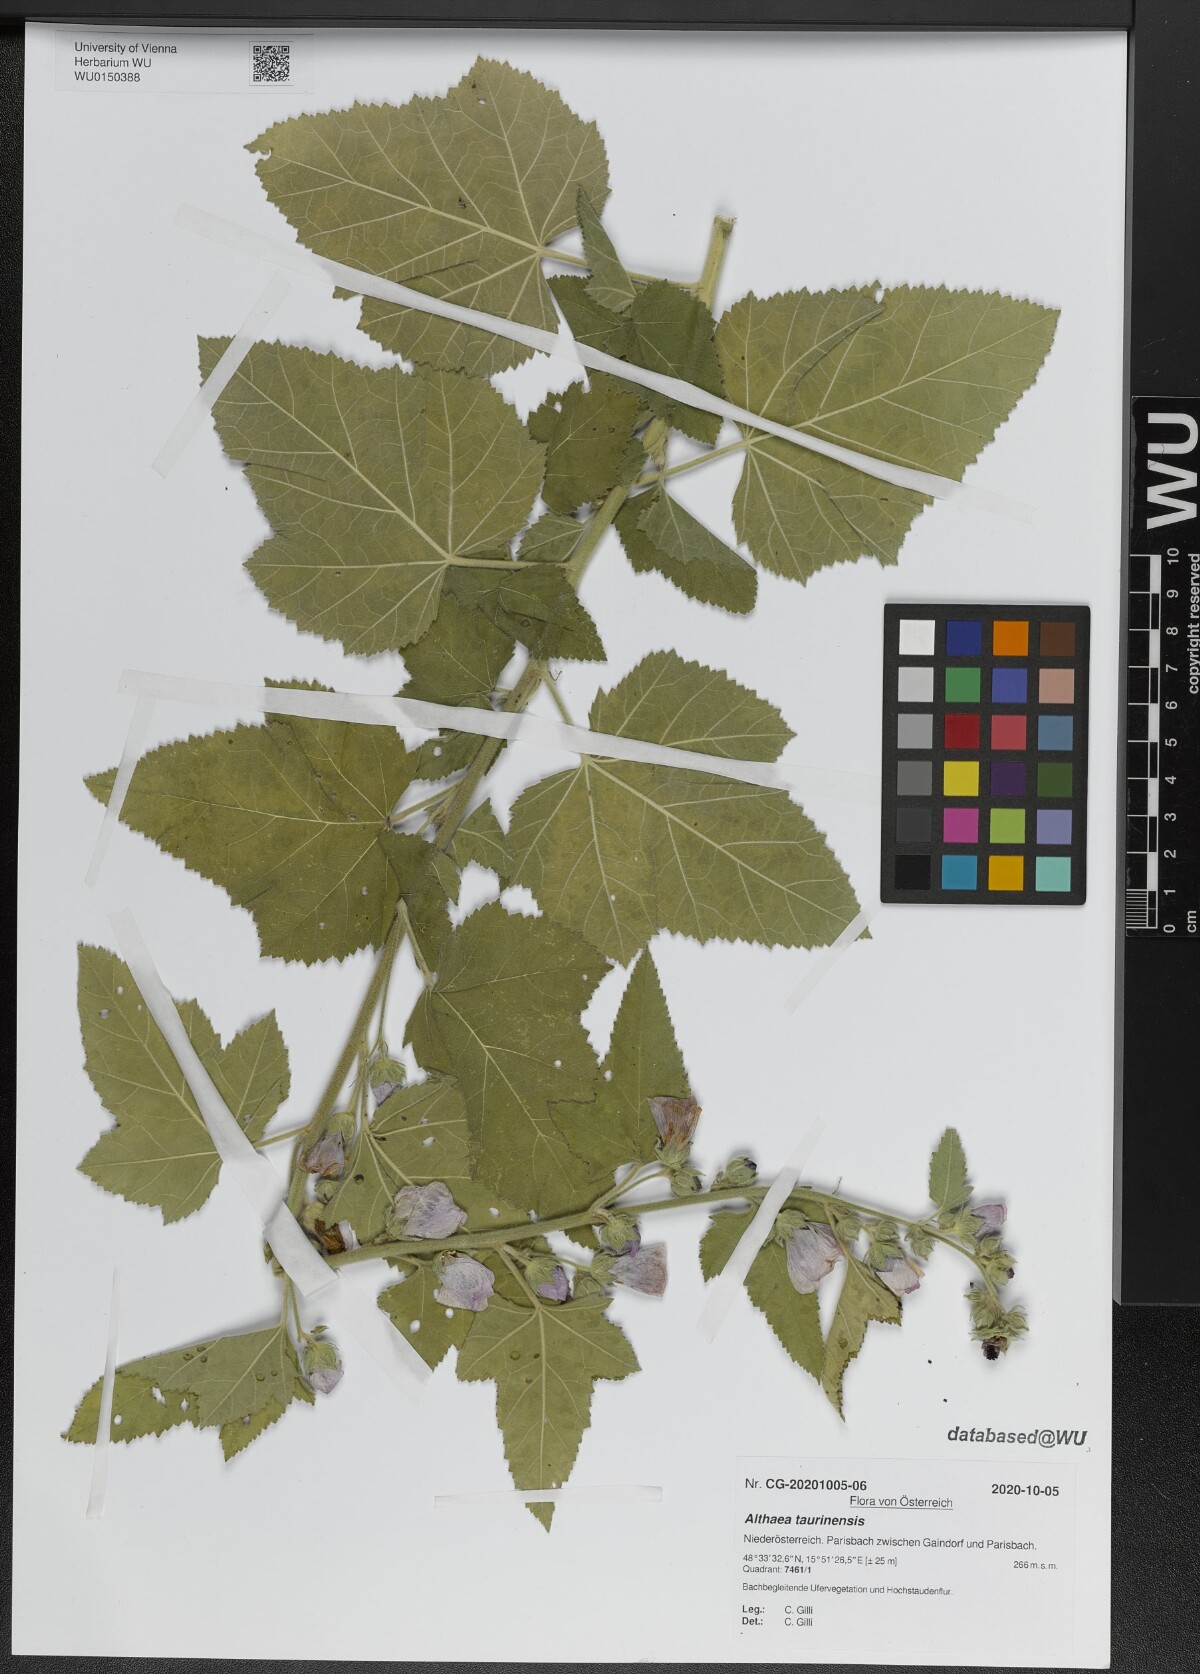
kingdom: Plantae
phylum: Tracheophyta
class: Magnoliopsida
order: Malvales
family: Malvaceae
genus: Althaea
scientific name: Althaea taurinensis
